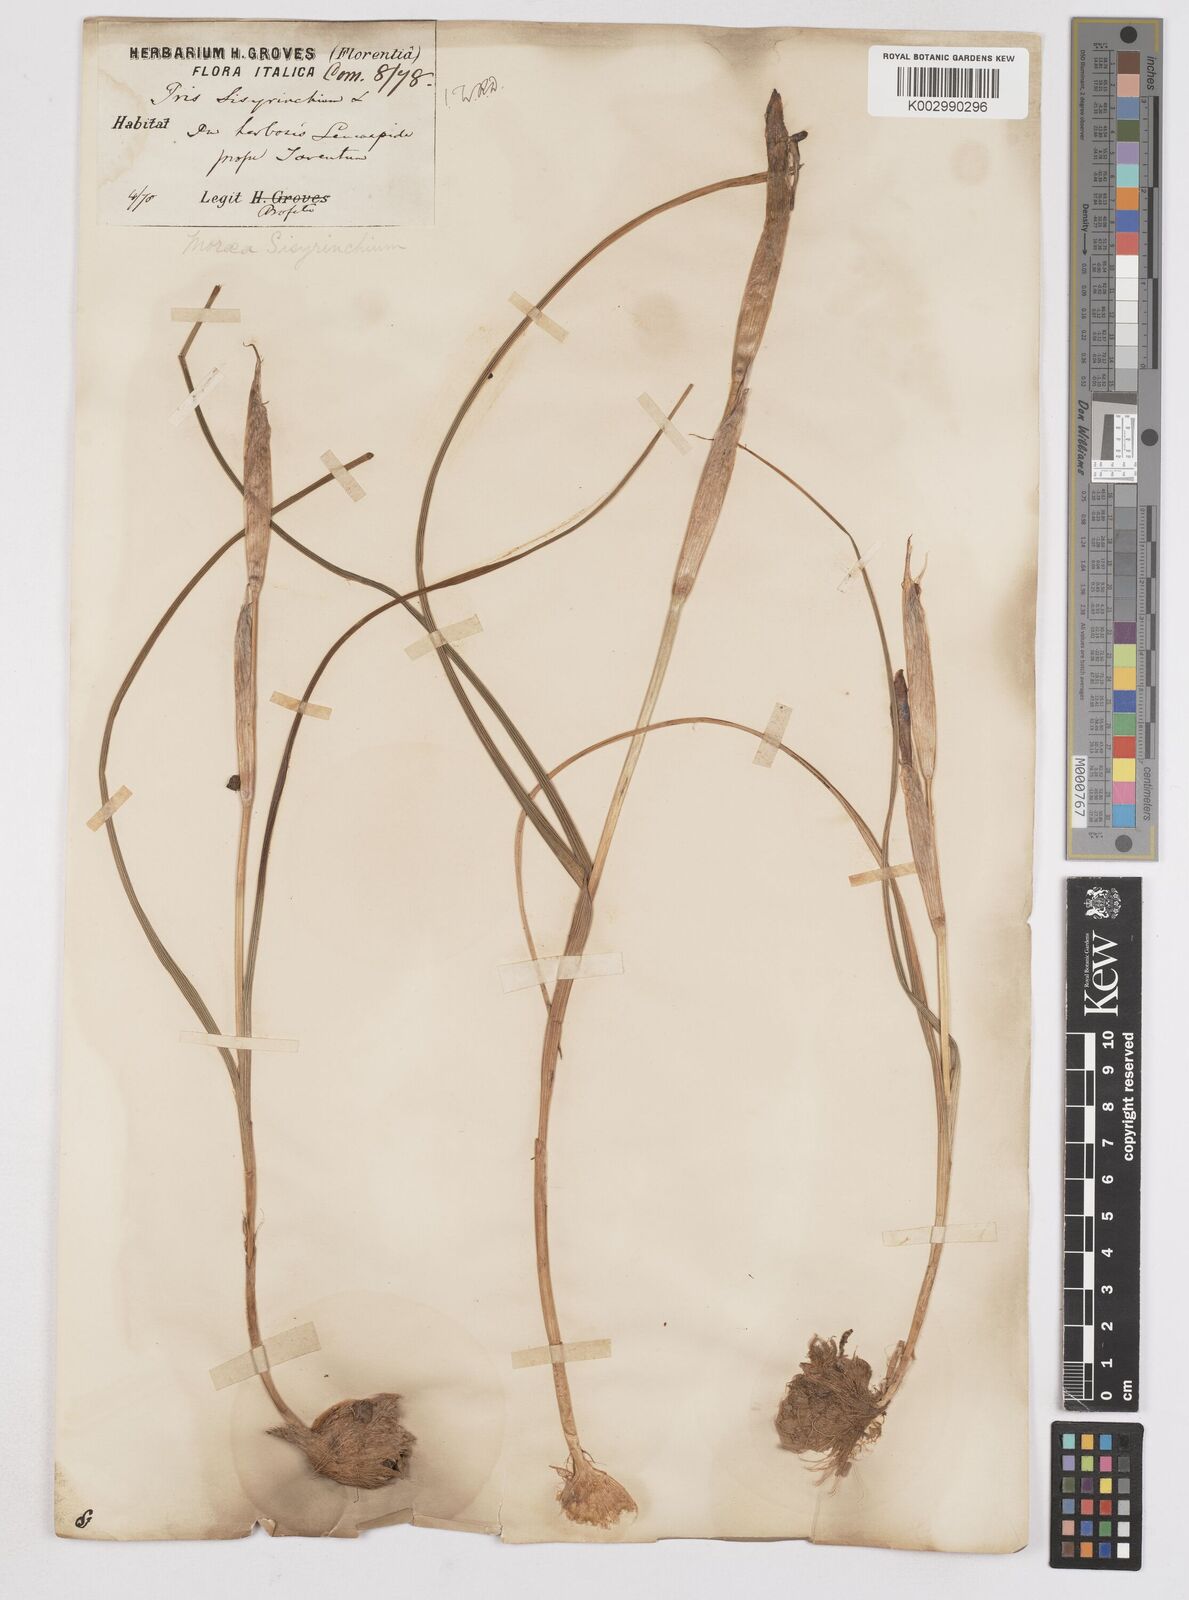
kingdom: Plantae
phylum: Tracheophyta
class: Liliopsida
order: Asparagales
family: Iridaceae
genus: Moraea
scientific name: Moraea sisyrinchium
